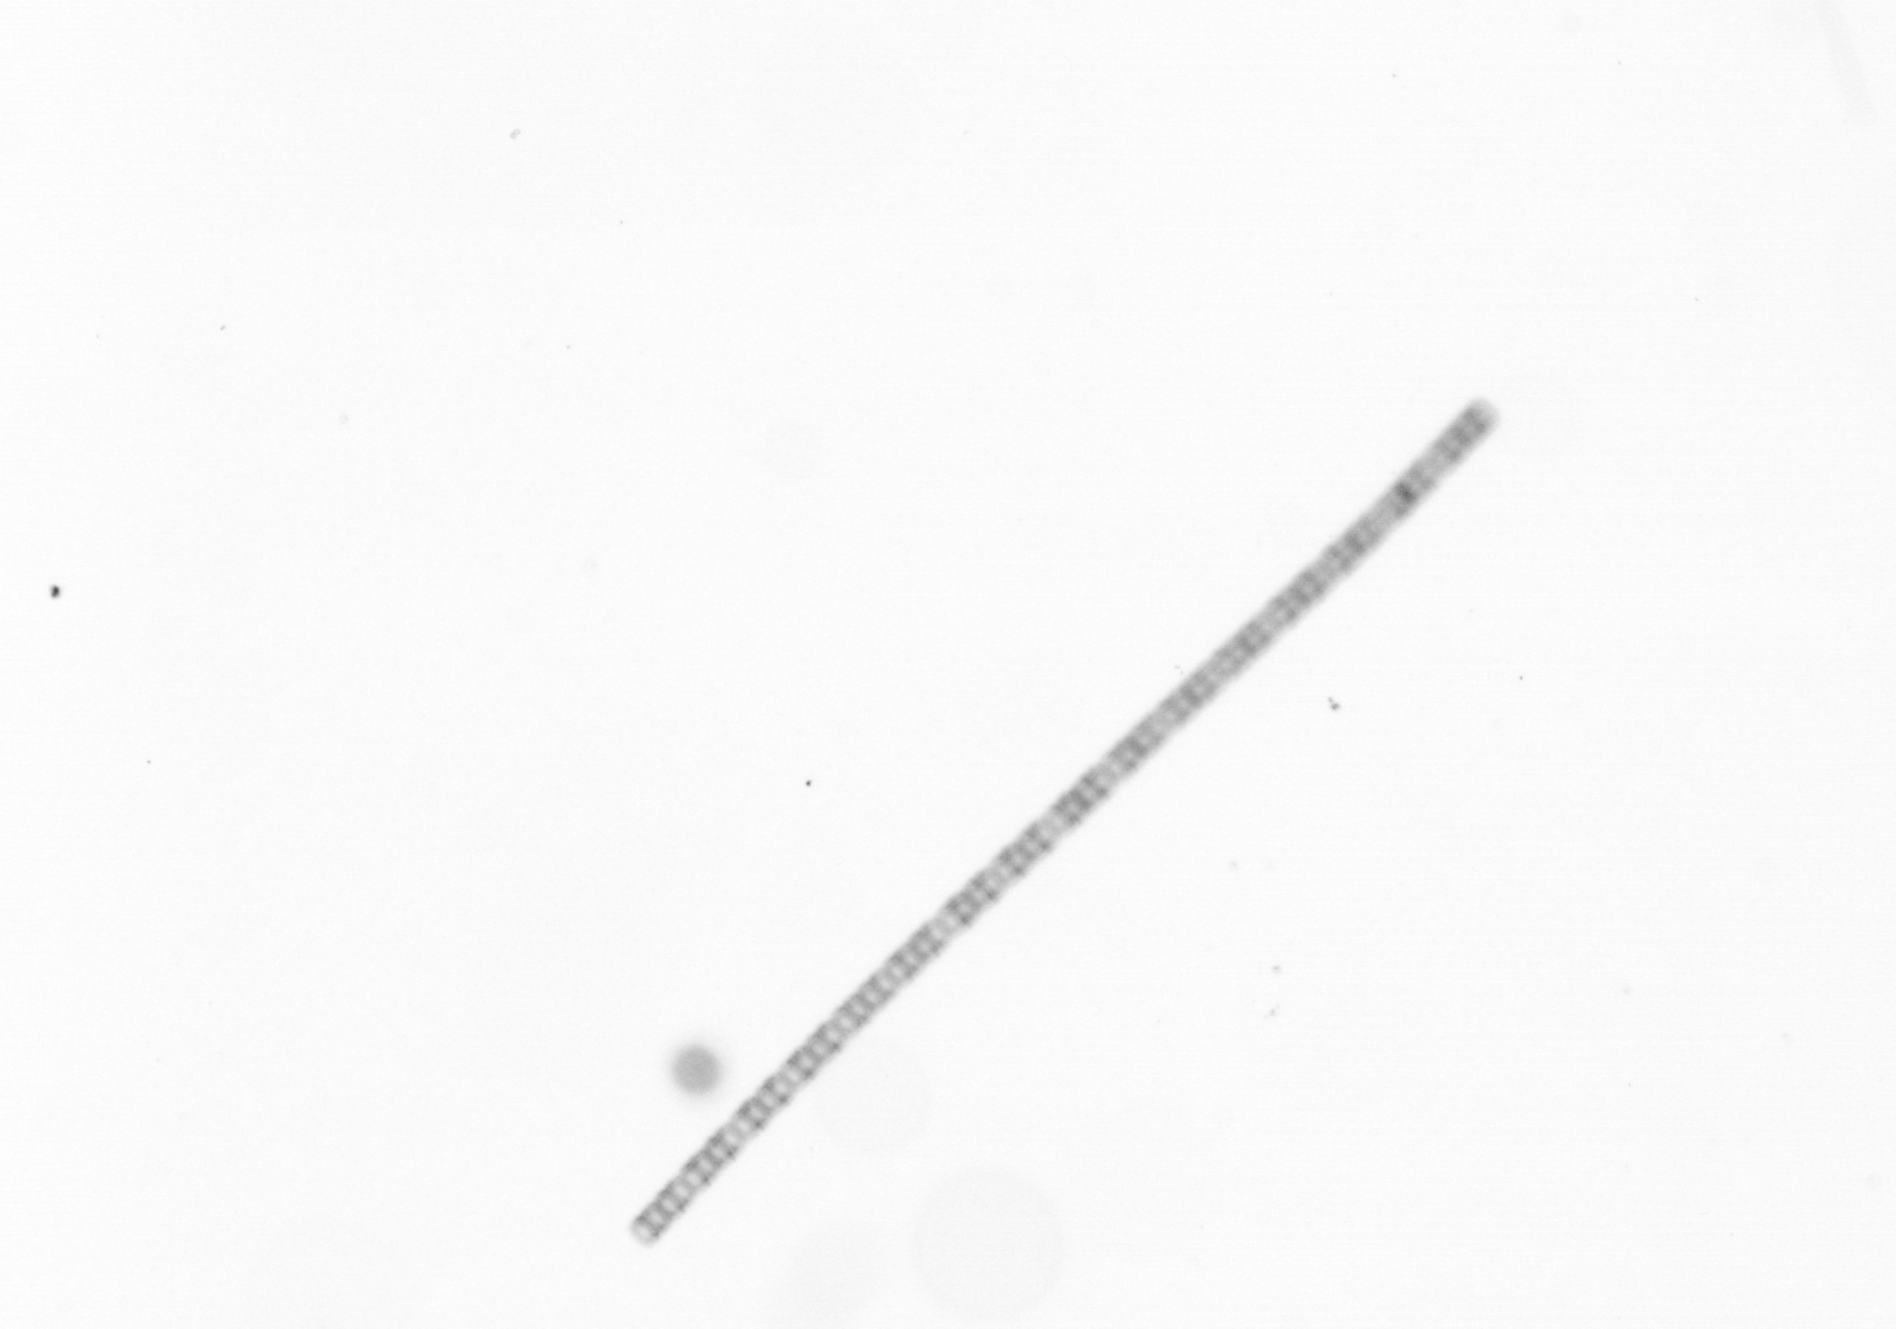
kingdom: Chromista
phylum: Ochrophyta
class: Bacillariophyceae
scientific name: Bacillariophyceae
